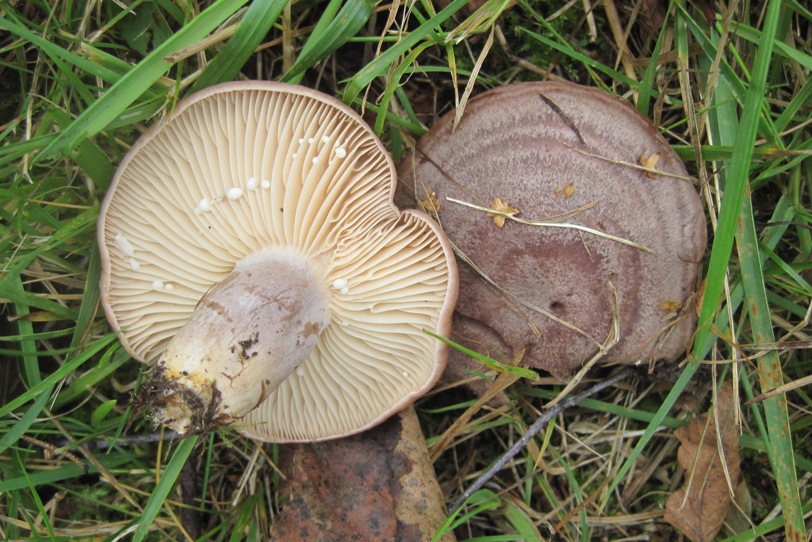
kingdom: Fungi
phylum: Basidiomycota
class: Agaricomycetes
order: Russulales
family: Russulaceae
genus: Lactarius
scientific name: Lactarius flexuosus
